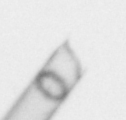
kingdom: Chromista
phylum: Ochrophyta
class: Bacillariophyceae
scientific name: Bacillariophyceae
